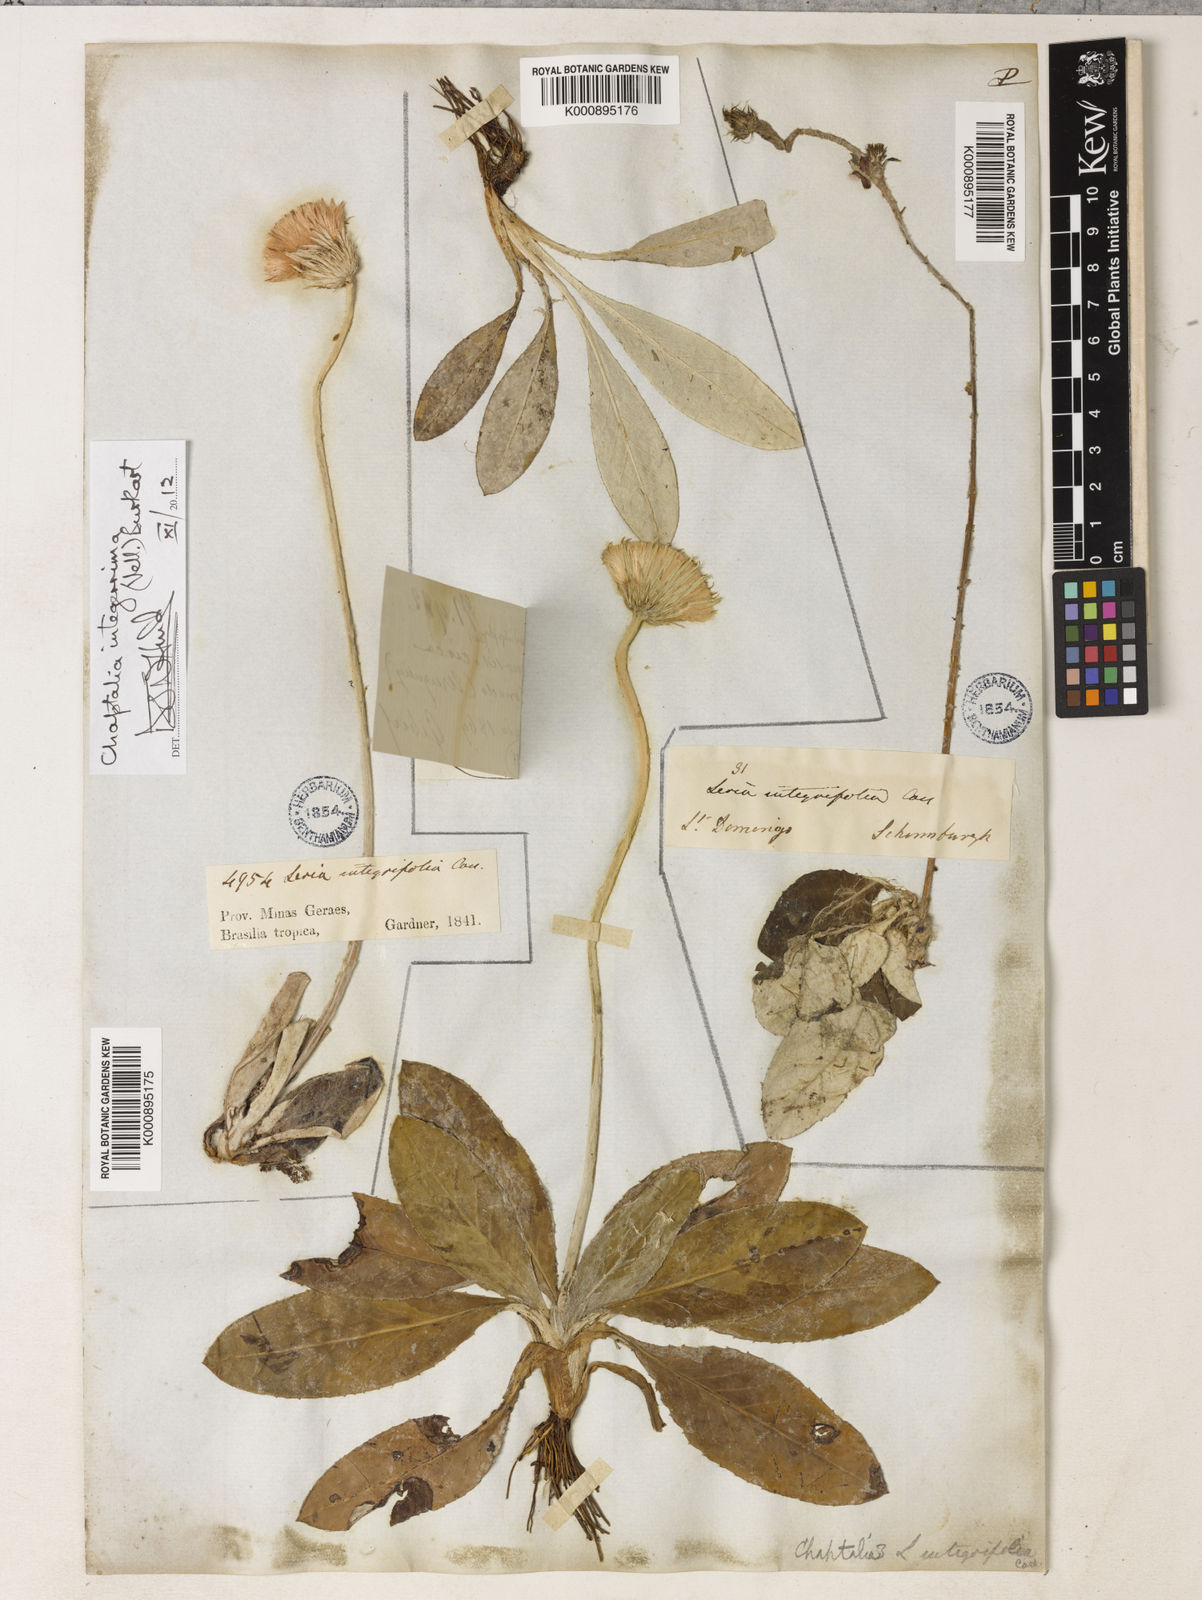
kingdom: Plantae
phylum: Tracheophyta
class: Magnoliopsida
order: Asterales
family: Asteraceae
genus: Chaptalia
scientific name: Chaptalia integerrima
